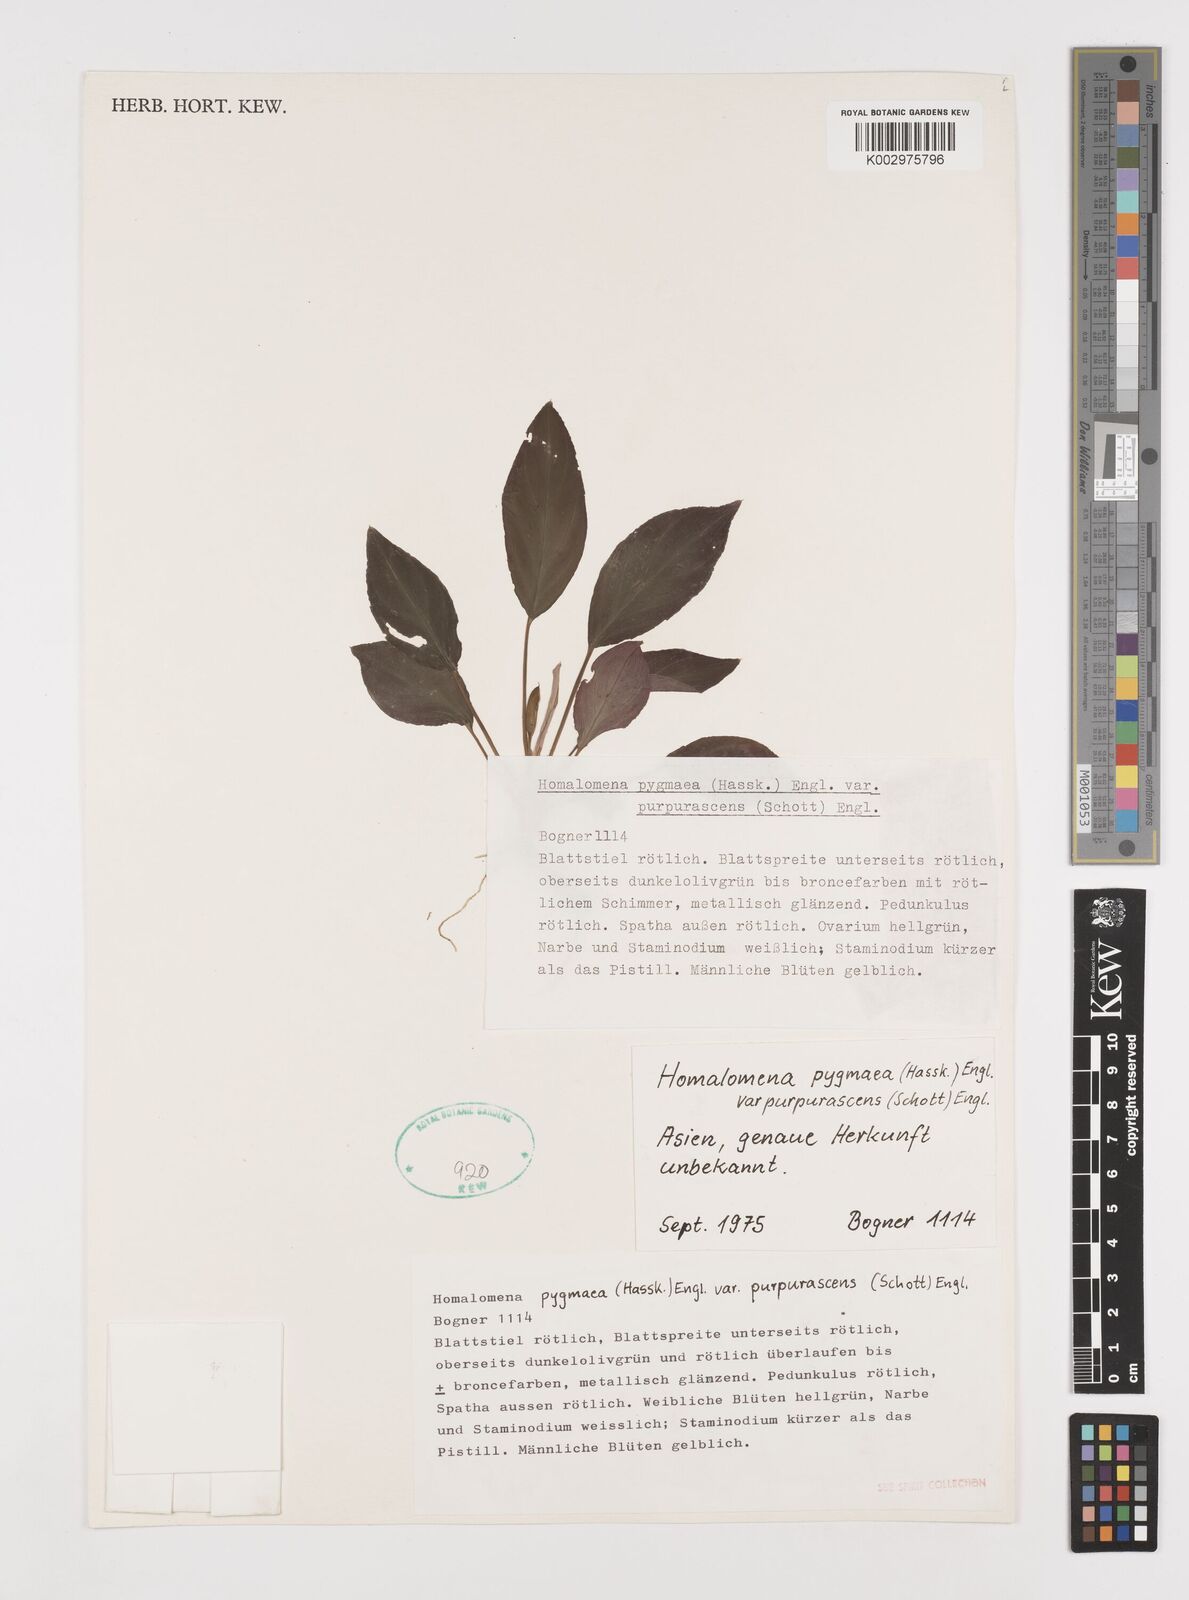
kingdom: Plantae
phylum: Tracheophyta
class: Liliopsida
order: Alismatales
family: Araceae
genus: Homalomena
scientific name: Homalomena humilis
